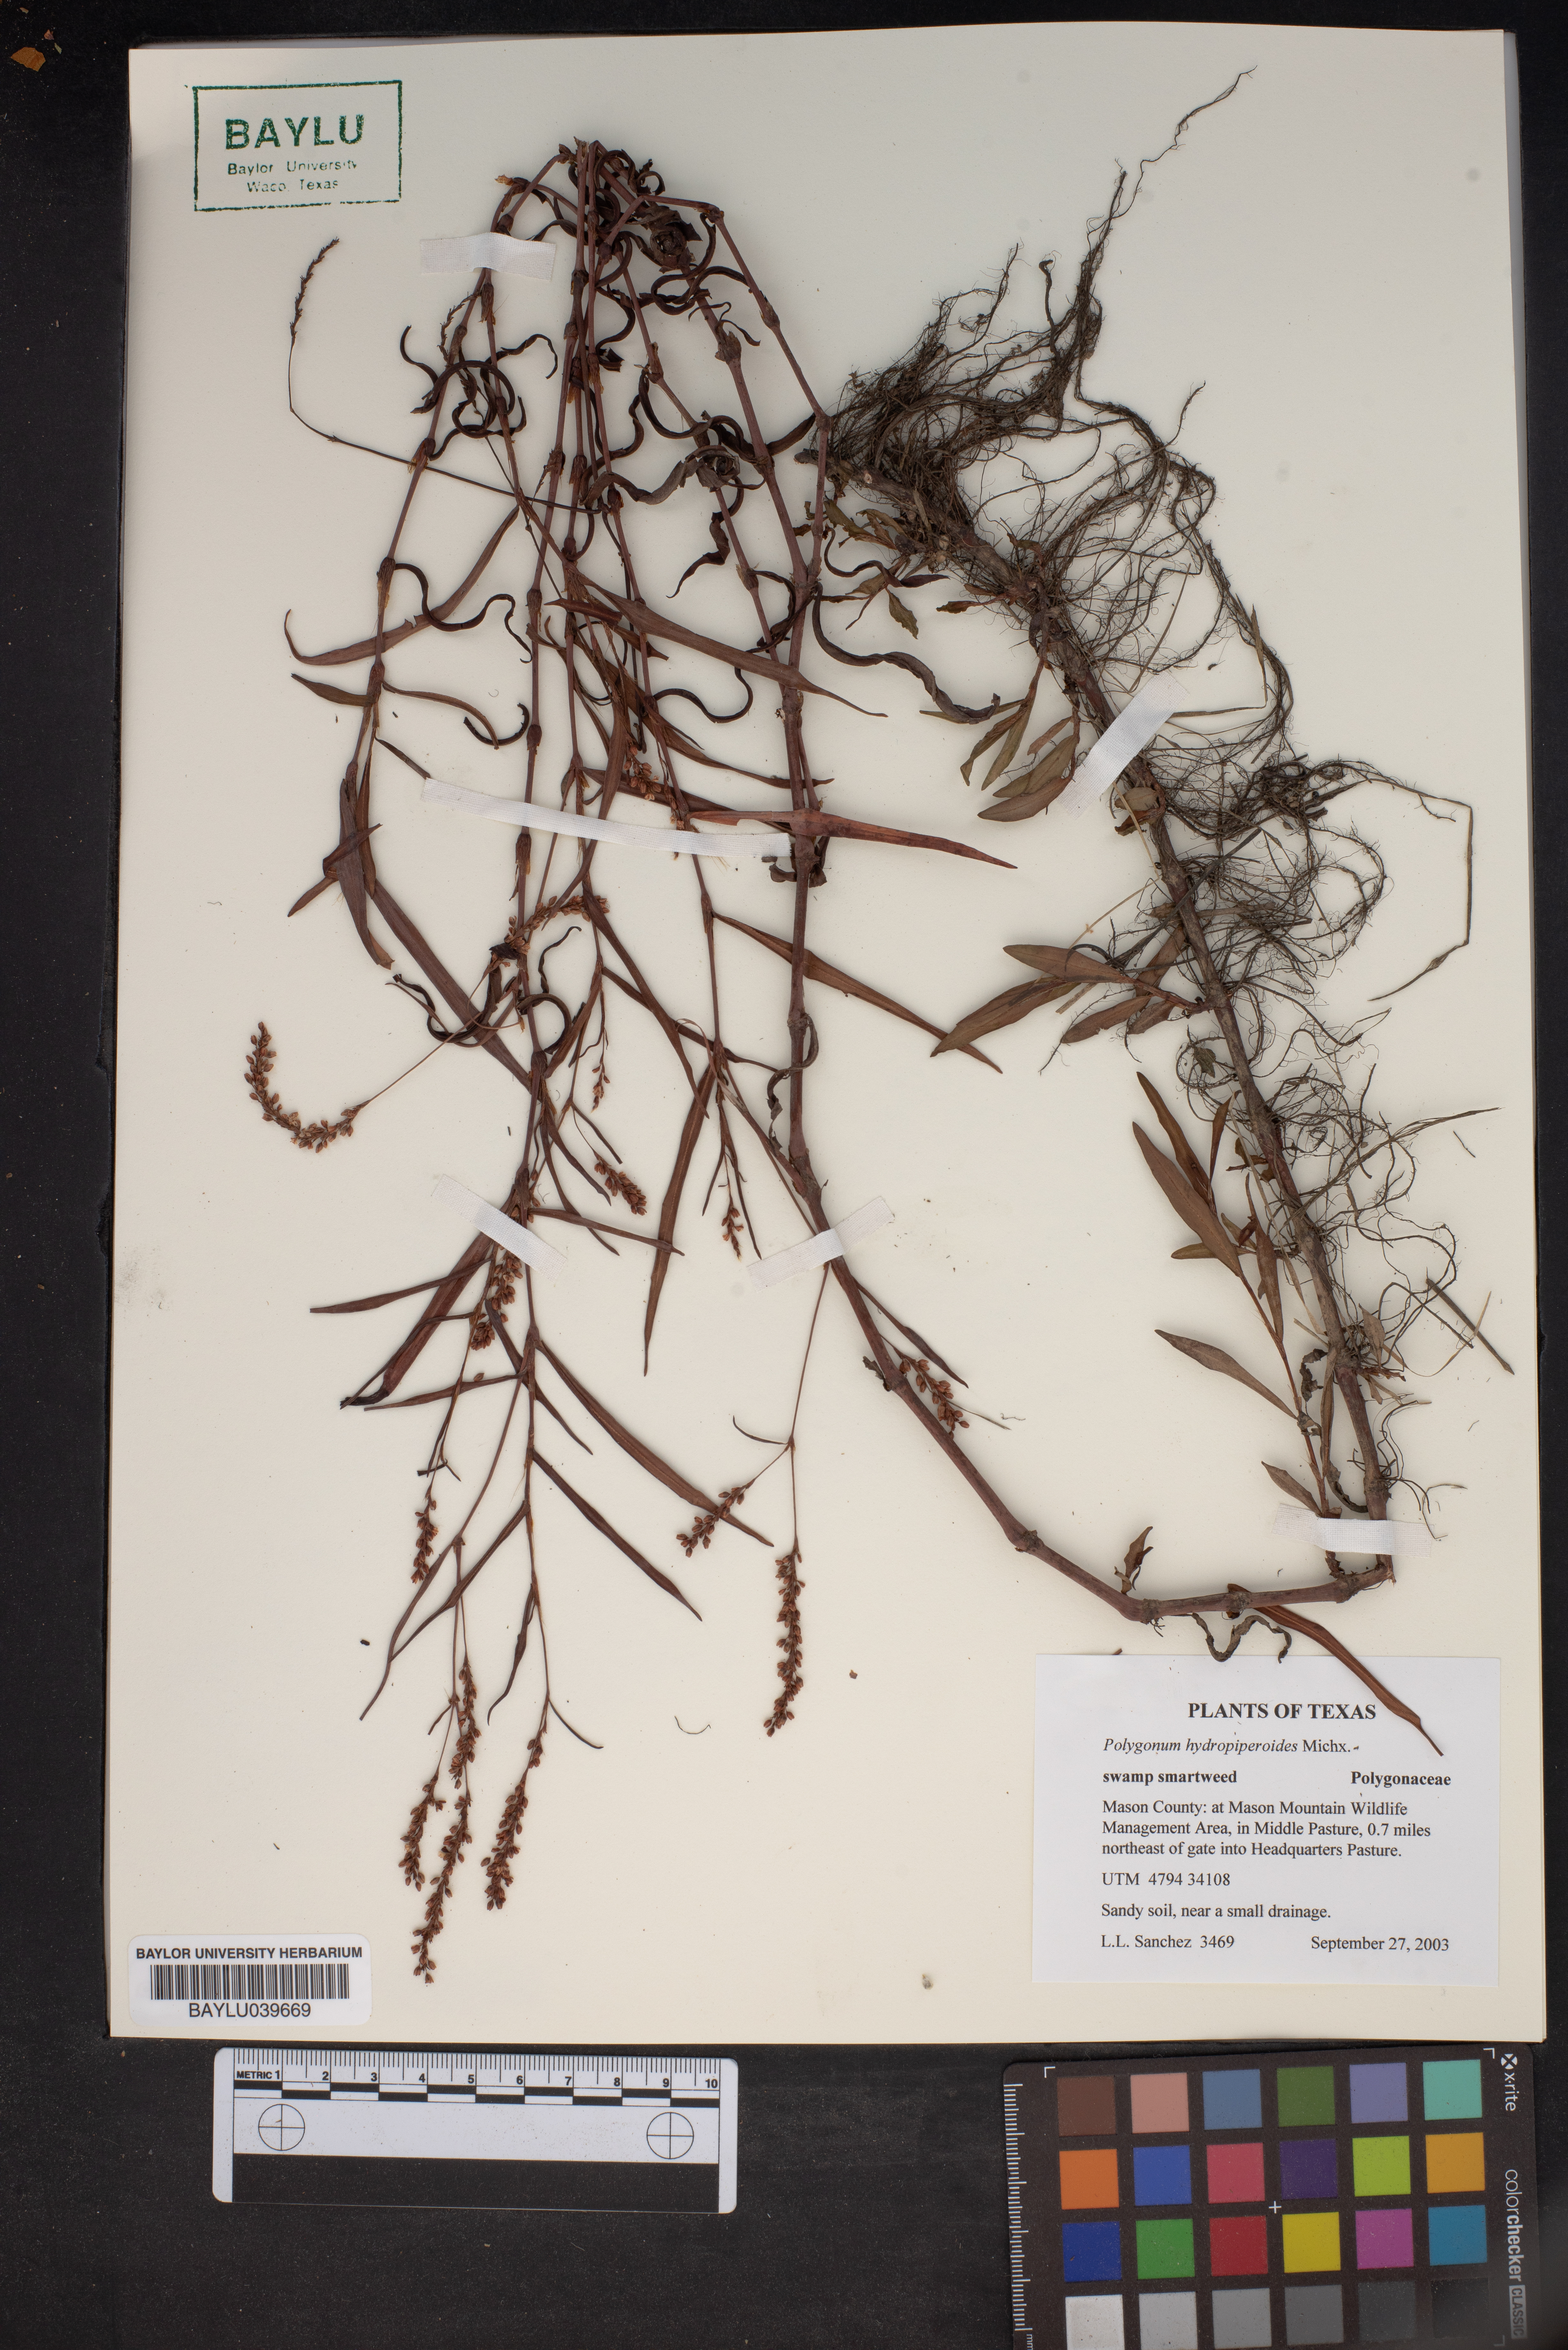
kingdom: Plantae
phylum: Tracheophyta
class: Magnoliopsida
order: Caryophyllales
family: Polygonaceae
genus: Persicaria
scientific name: Persicaria hydropiperoides
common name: Swamp smartweed
